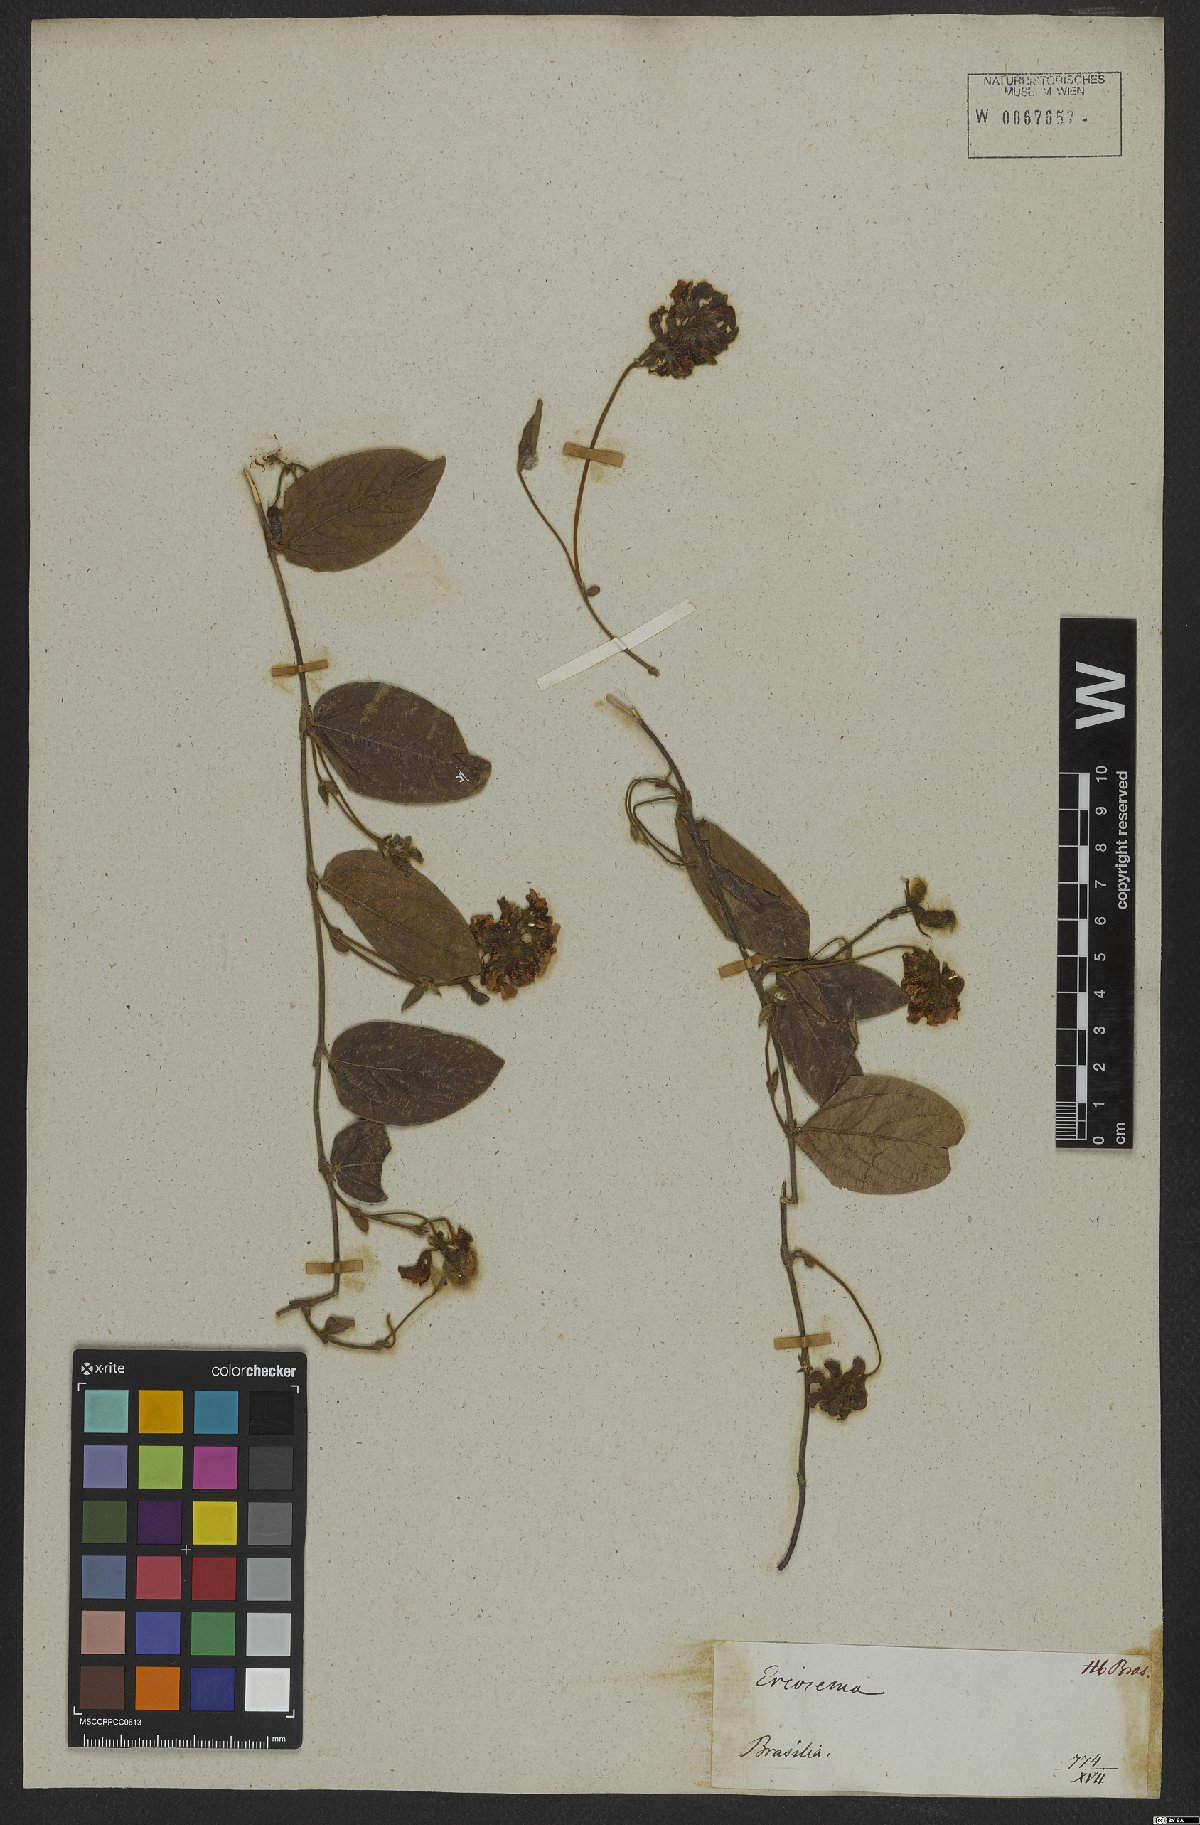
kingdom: Plantae
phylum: Tracheophyta
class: Magnoliopsida
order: Fabales
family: Fabaceae
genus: Eriosema
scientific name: Eriosema heterophyllum
